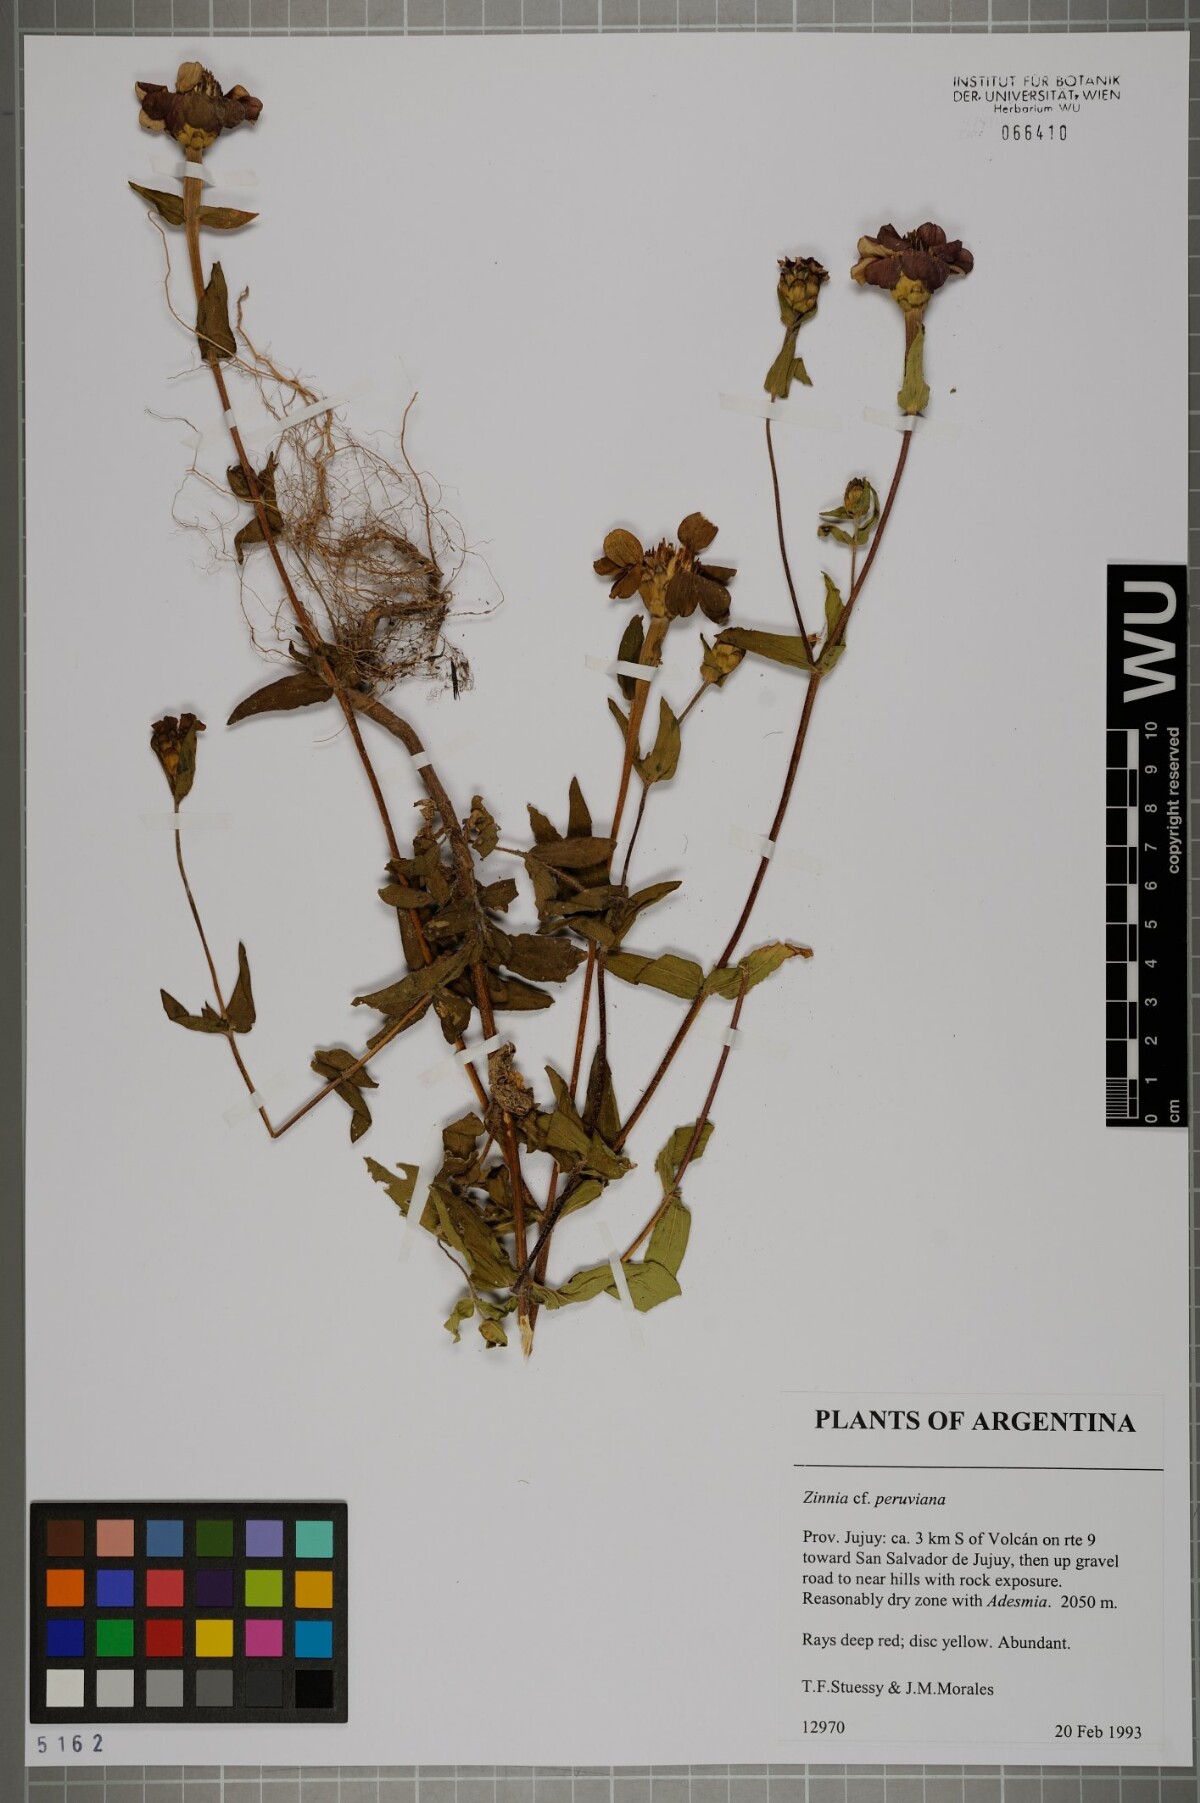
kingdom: Plantae
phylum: Tracheophyta
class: Magnoliopsida
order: Asterales
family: Asteraceae
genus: Zinnia
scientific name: Zinnia peruviana
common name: Peruvian zinnia
